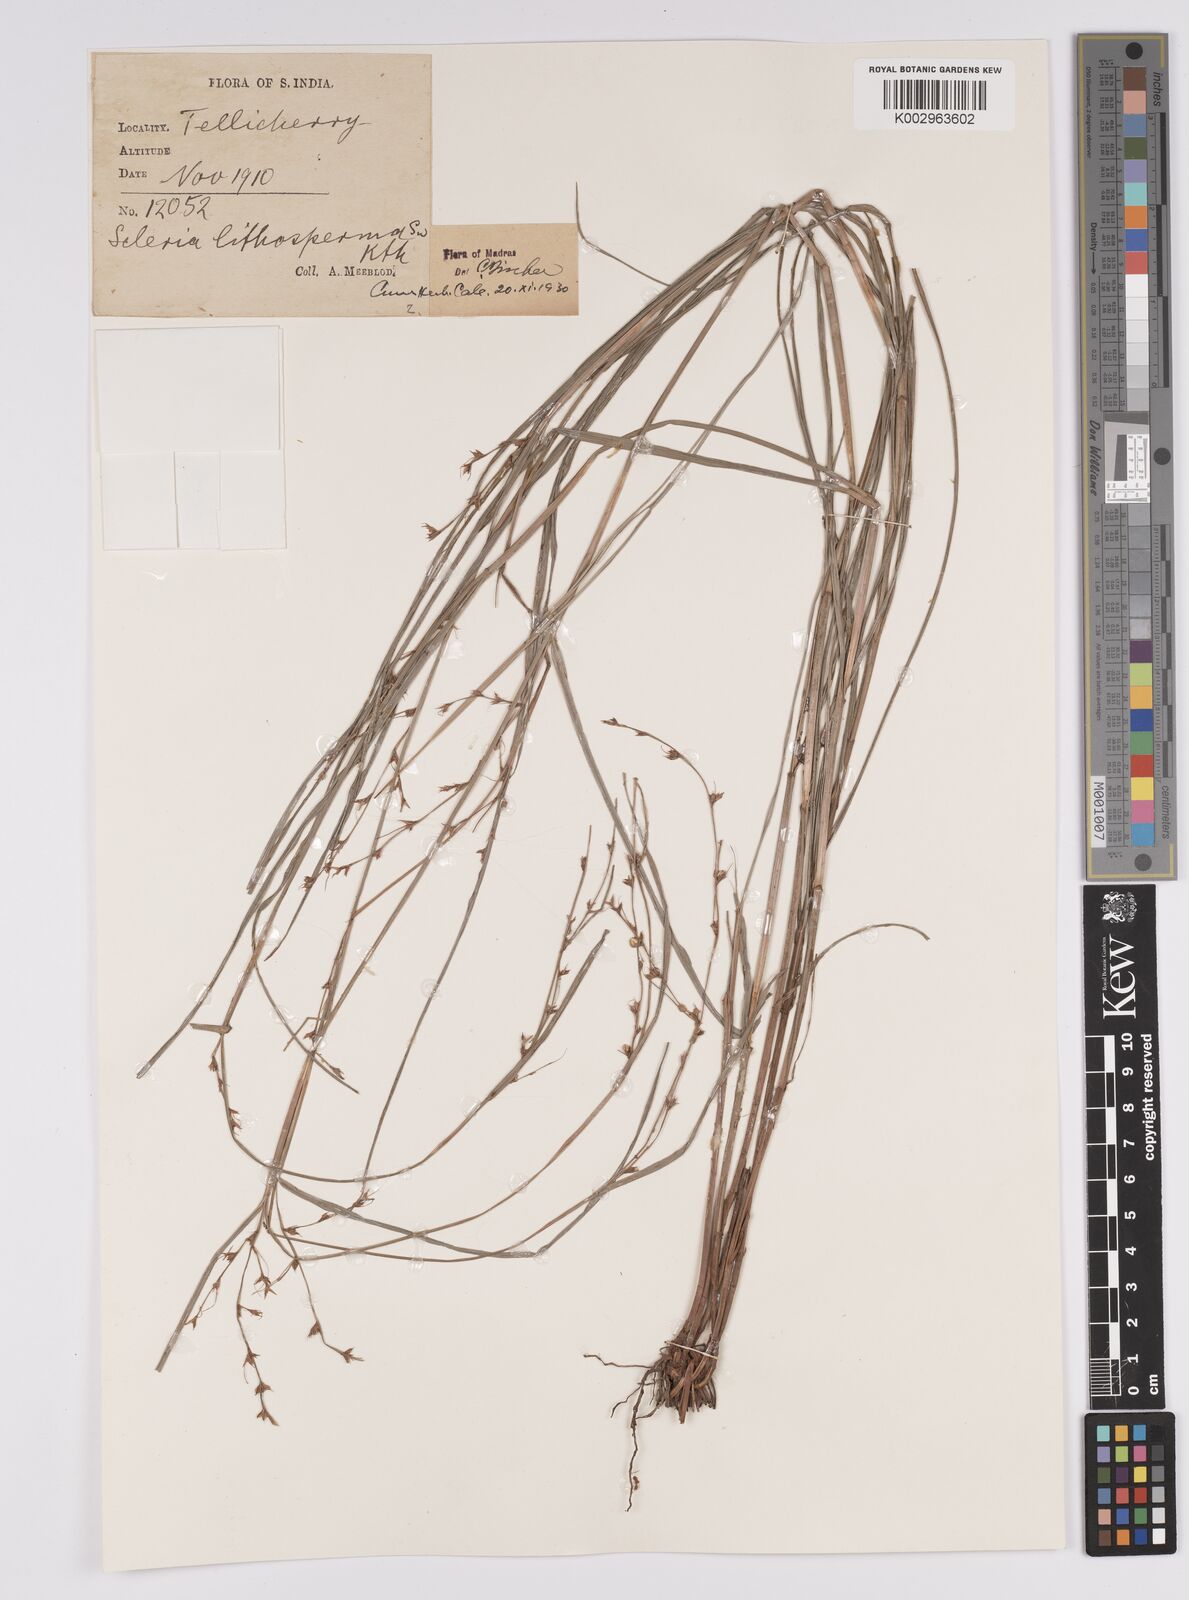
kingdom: Plantae
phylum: Tracheophyta
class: Liliopsida
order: Poales
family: Cyperaceae
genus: Scleria
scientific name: Scleria lithosperma
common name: Florida keys nut-rush
